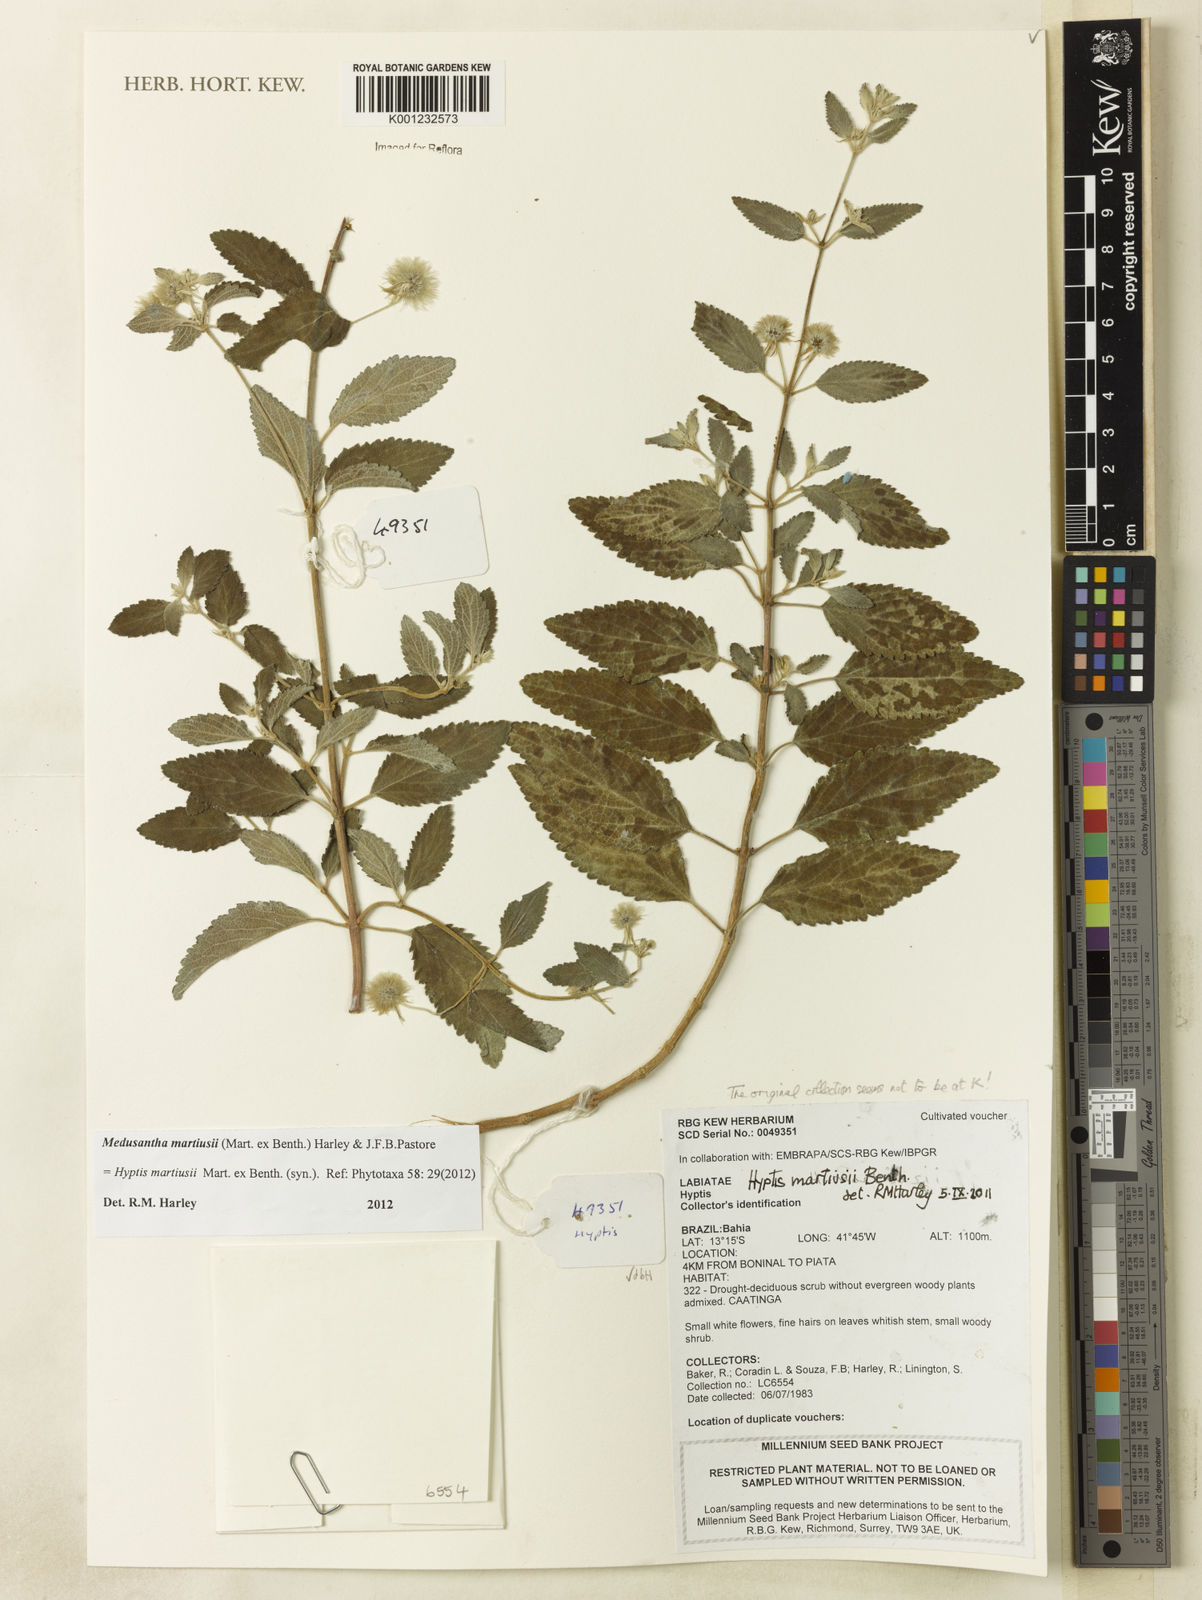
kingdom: Plantae
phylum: Tracheophyta
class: Magnoliopsida
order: Lamiales
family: Lamiaceae
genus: Medusantha
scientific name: Medusantha martiusii
